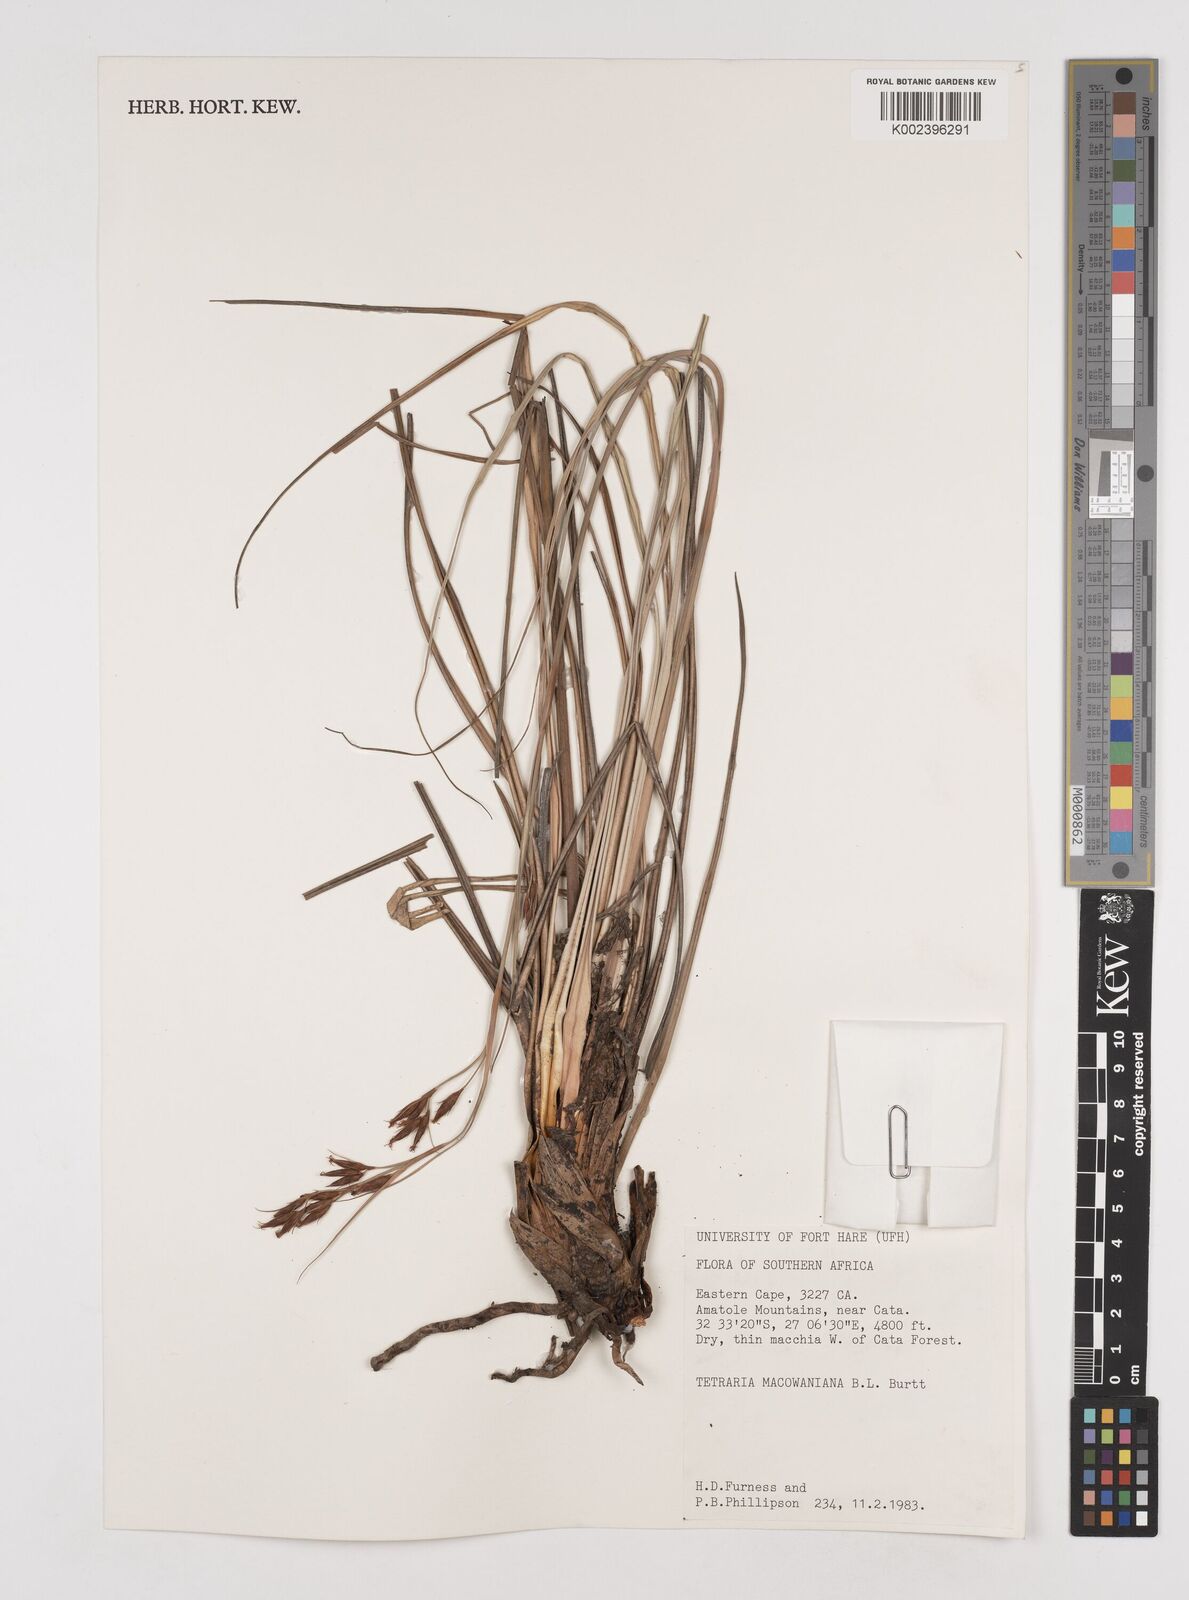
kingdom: Plantae
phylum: Tracheophyta
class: Liliopsida
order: Poales
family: Cyperaceae
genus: Tetraria
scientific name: Tetraria macowaniana
